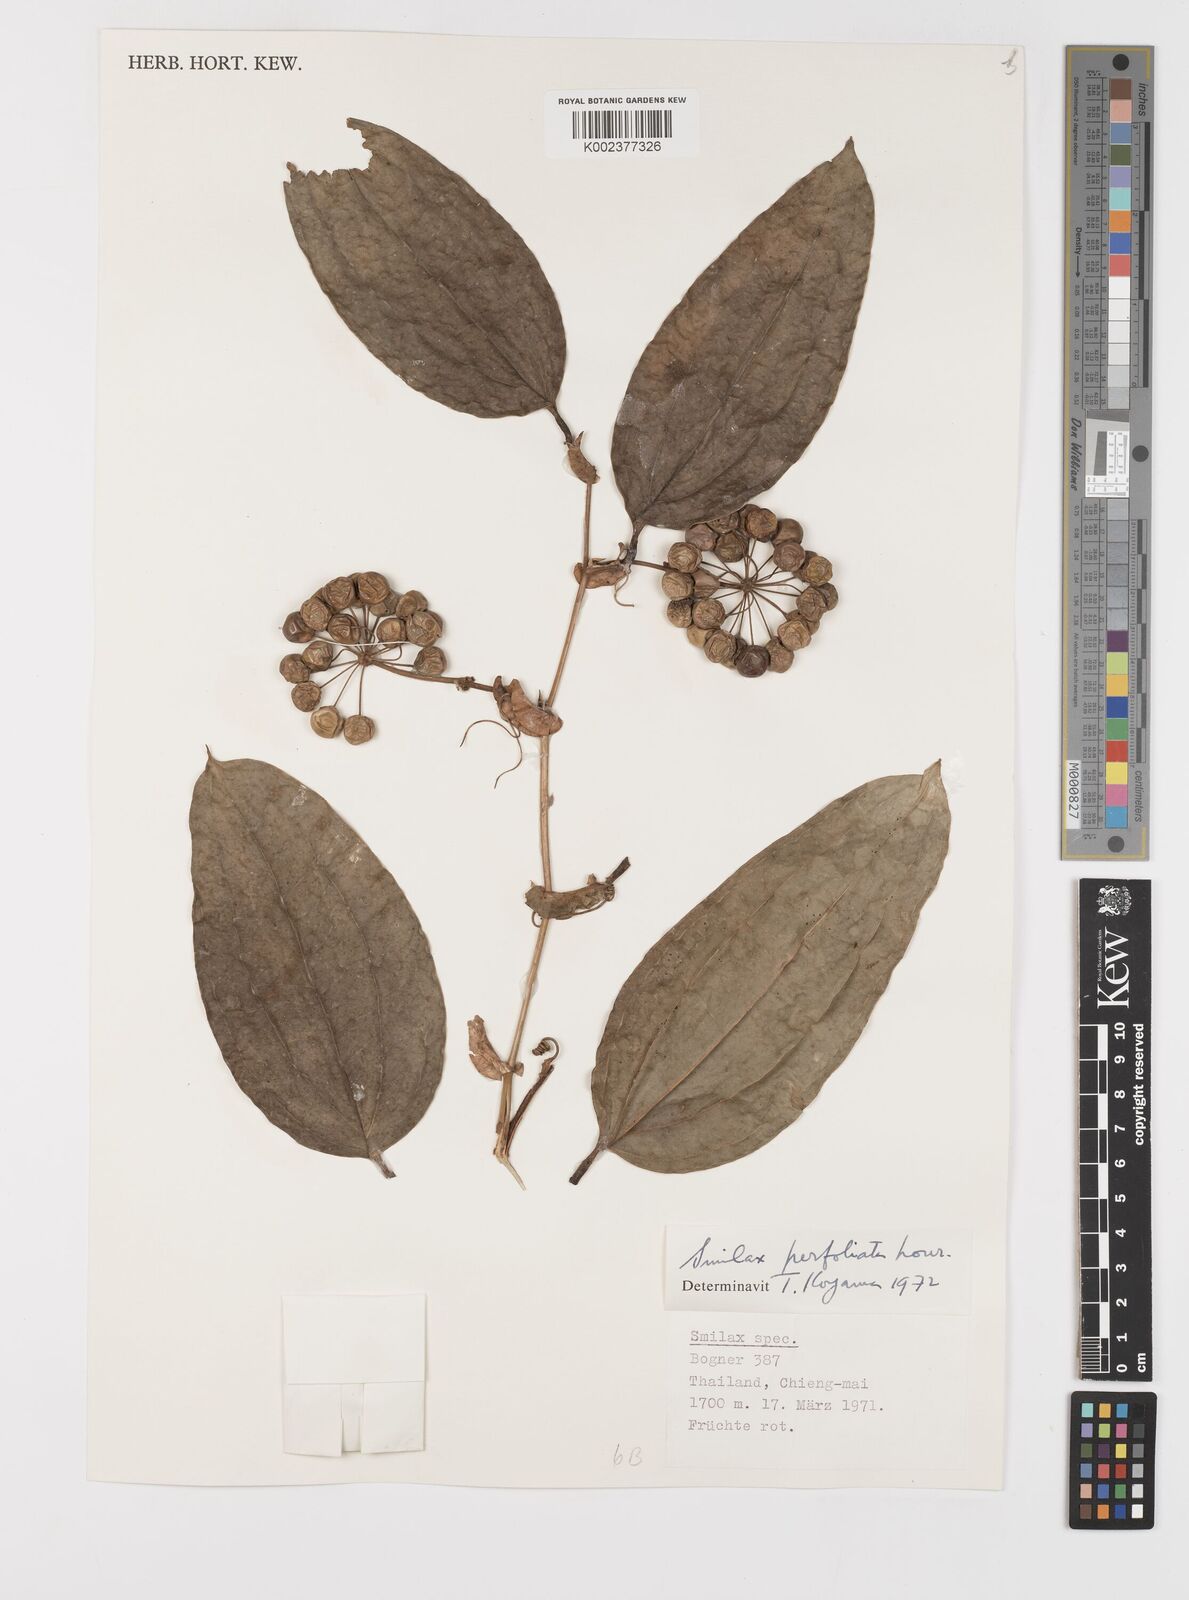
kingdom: Plantae
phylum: Tracheophyta
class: Liliopsida
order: Liliales
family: Smilacaceae
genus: Smilax
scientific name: Smilax perfoliata
